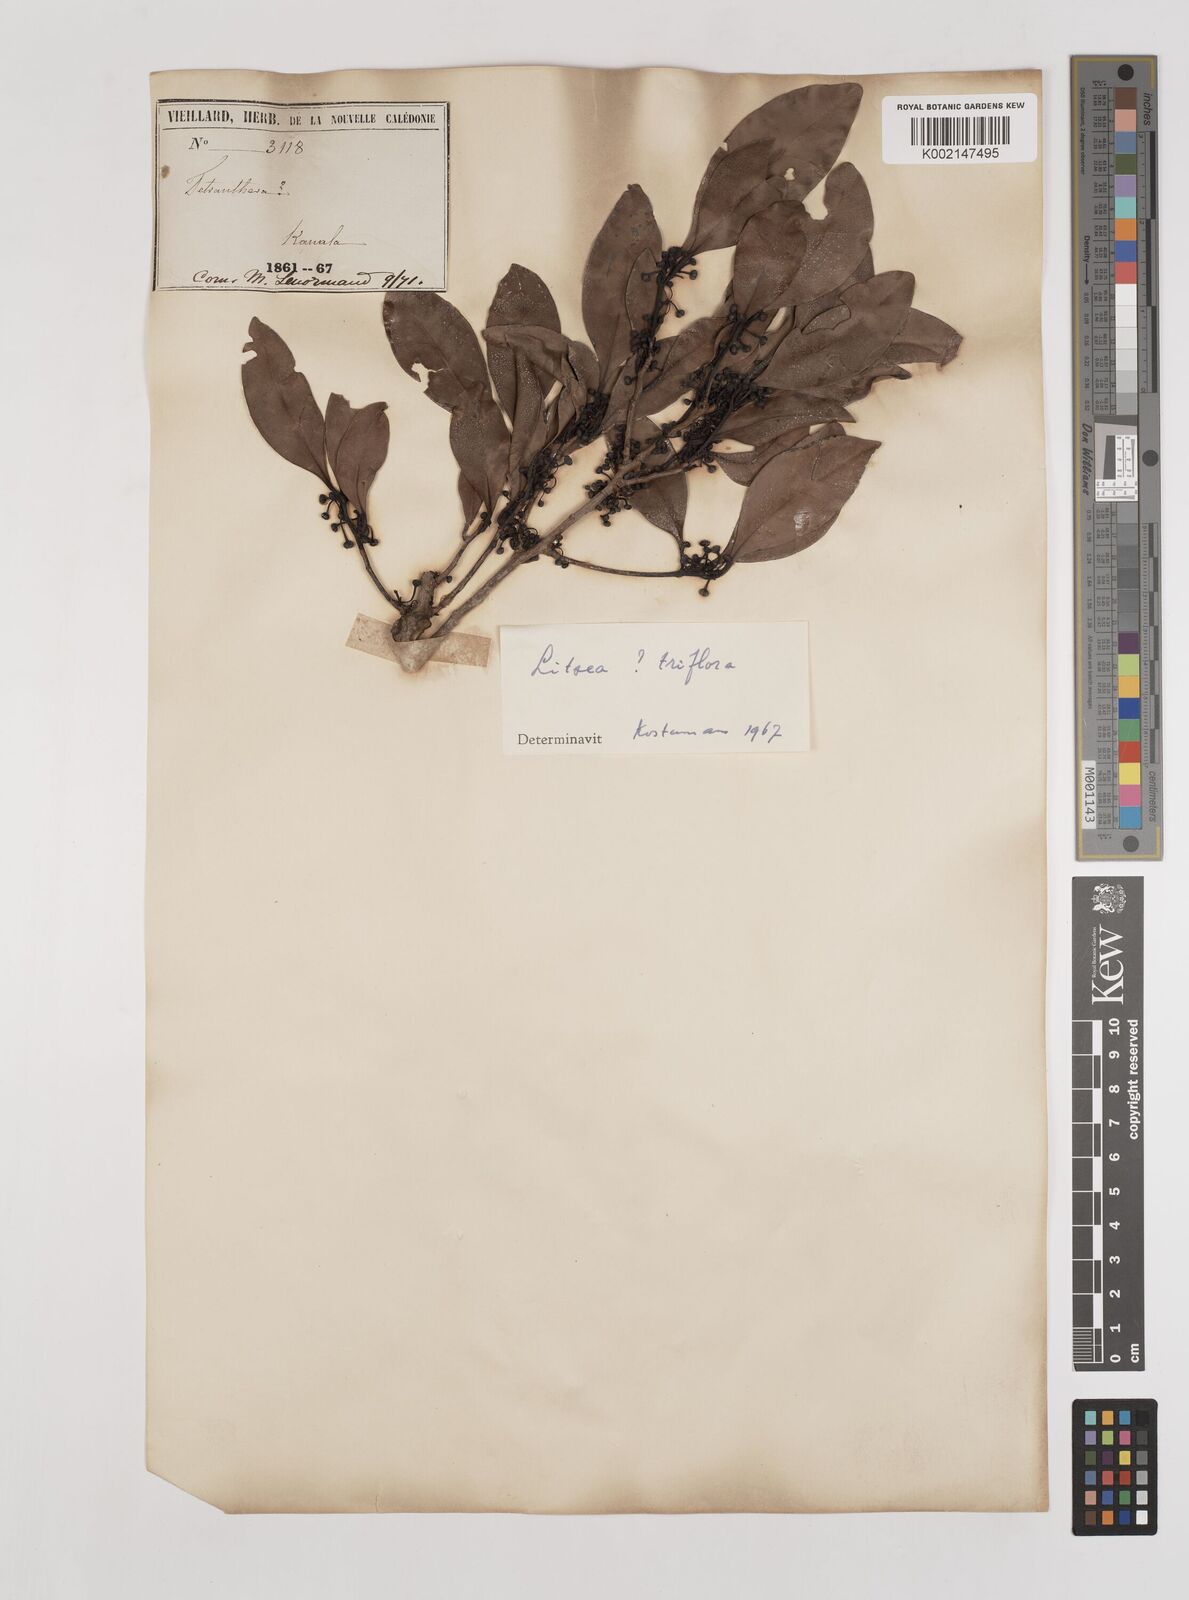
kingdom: Plantae
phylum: Tracheophyta
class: Magnoliopsida
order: Laurales
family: Lauraceae
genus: Litsea
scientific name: Litsea triflora
